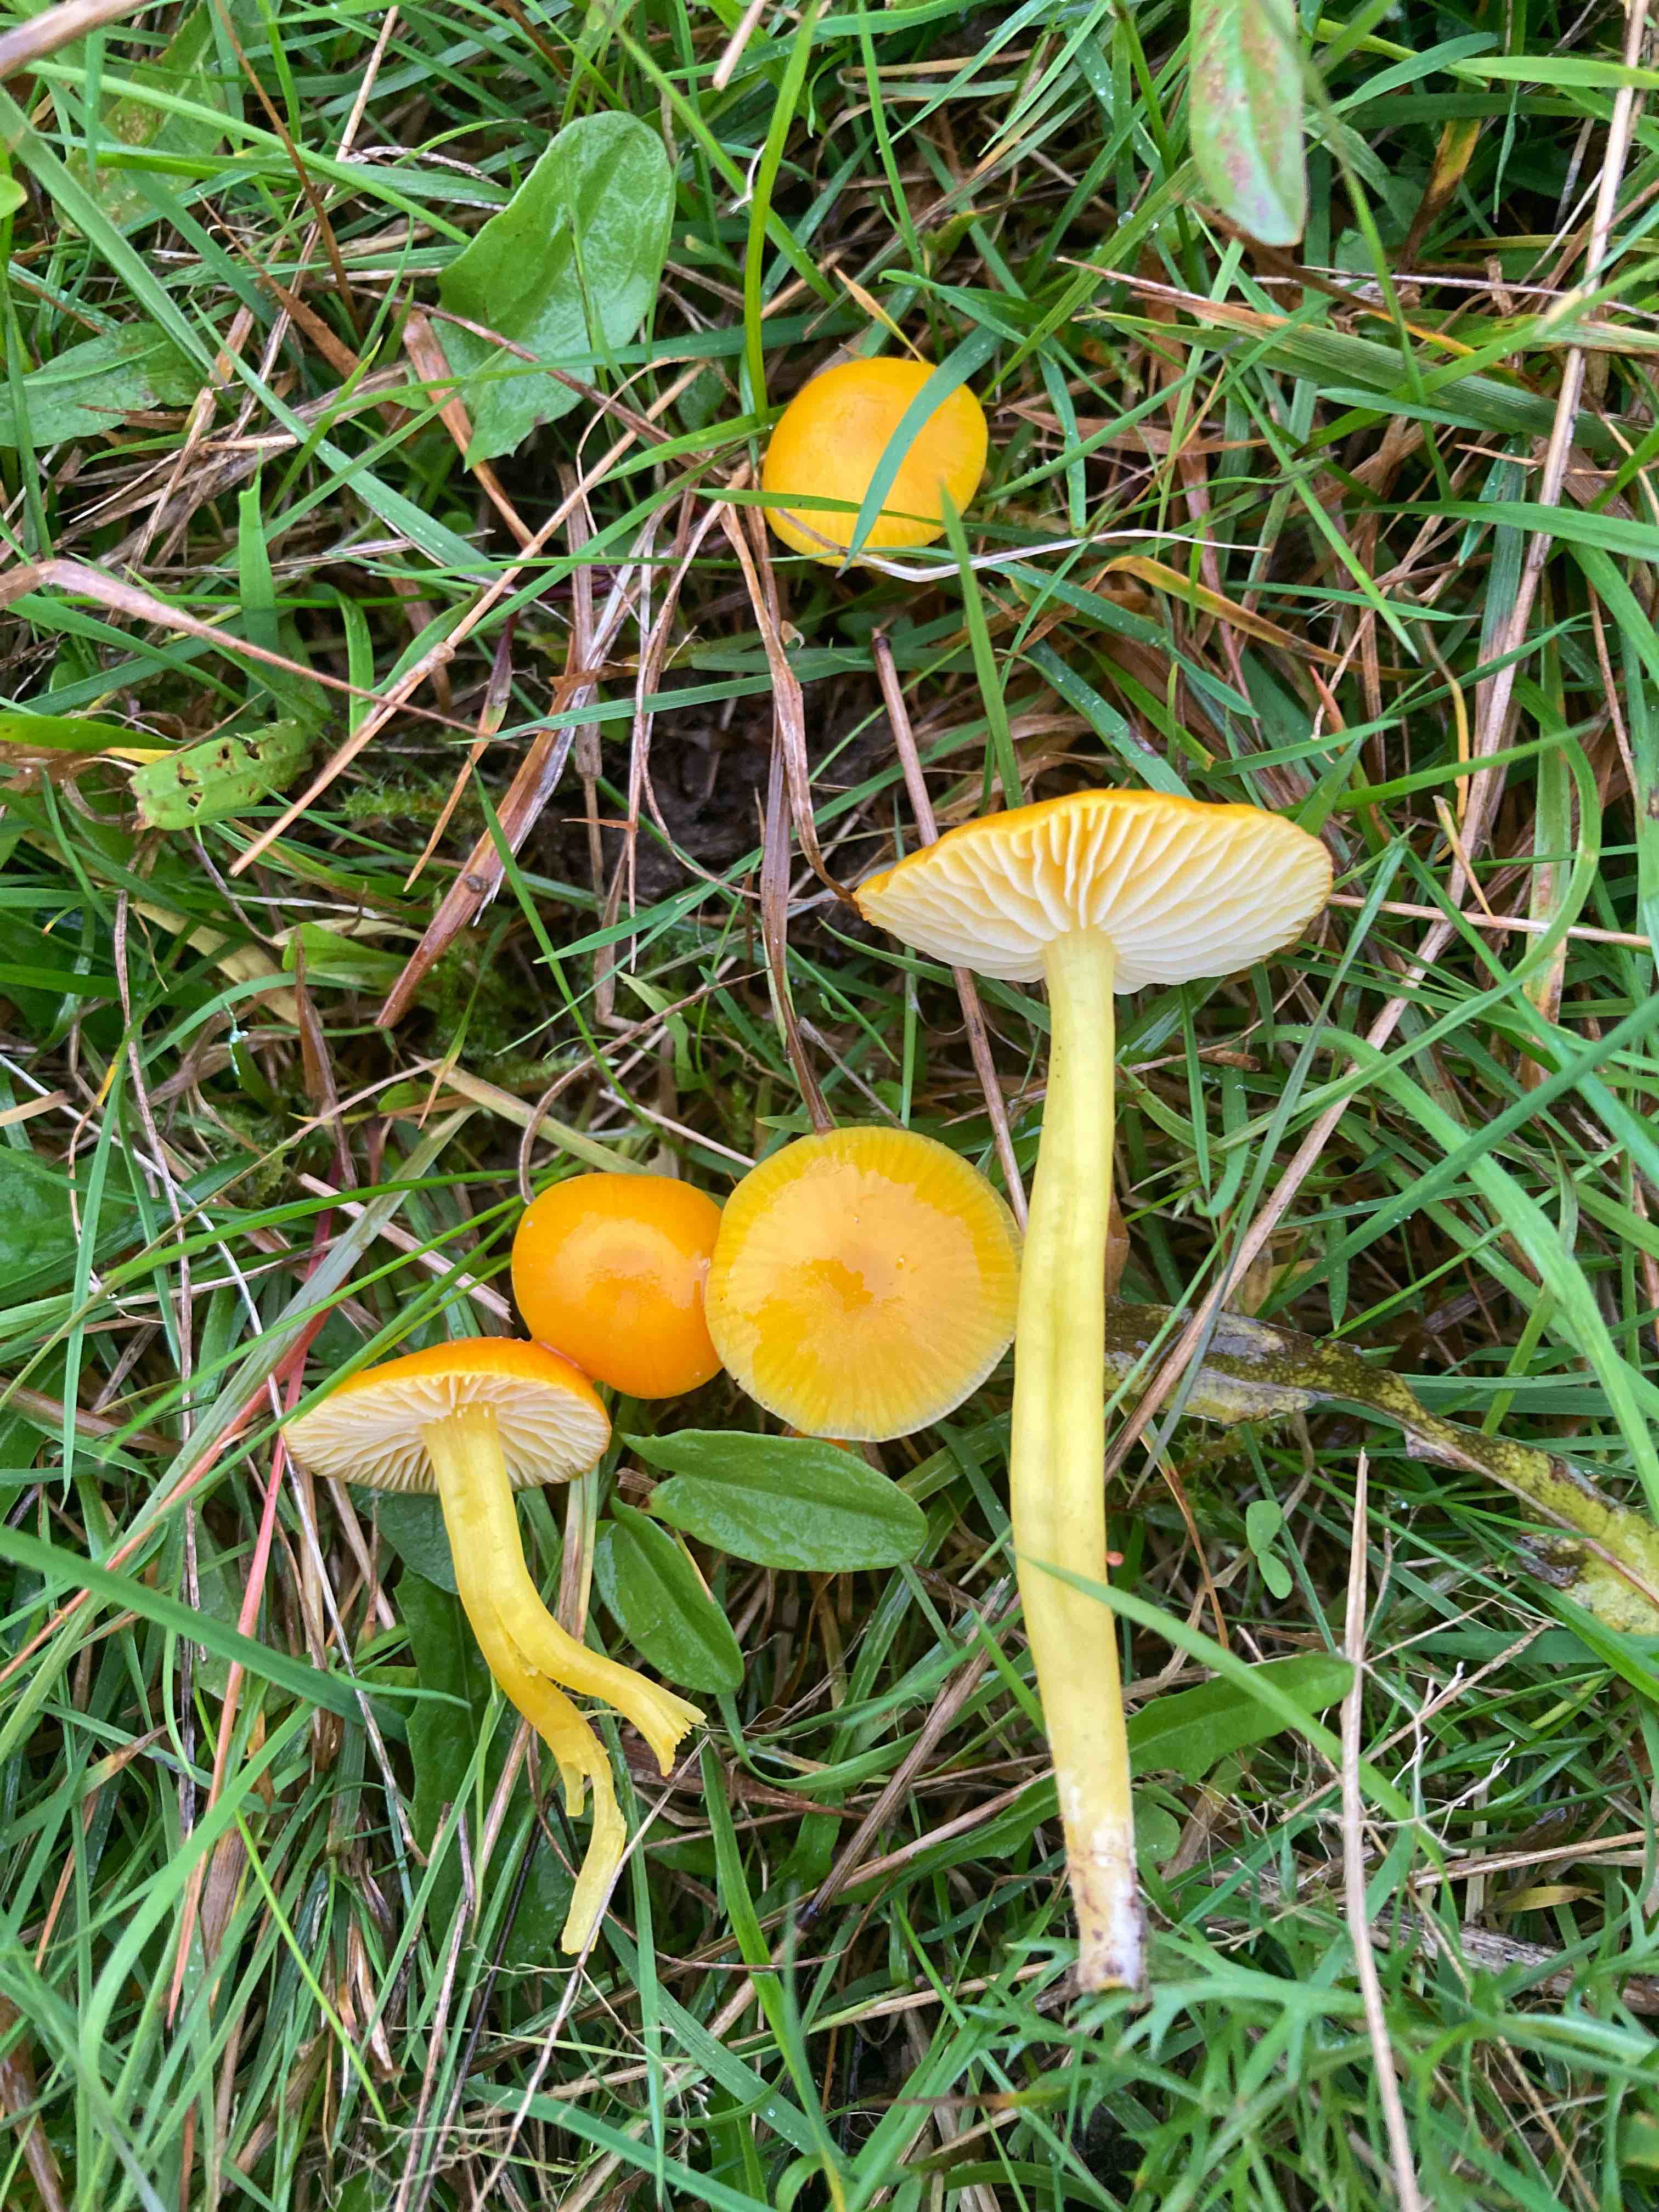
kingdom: Fungi
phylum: Basidiomycota
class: Agaricomycetes
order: Agaricales
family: Hygrophoraceae
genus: Hygrocybe
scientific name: Hygrocybe ceracea
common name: voksgul vokshat
